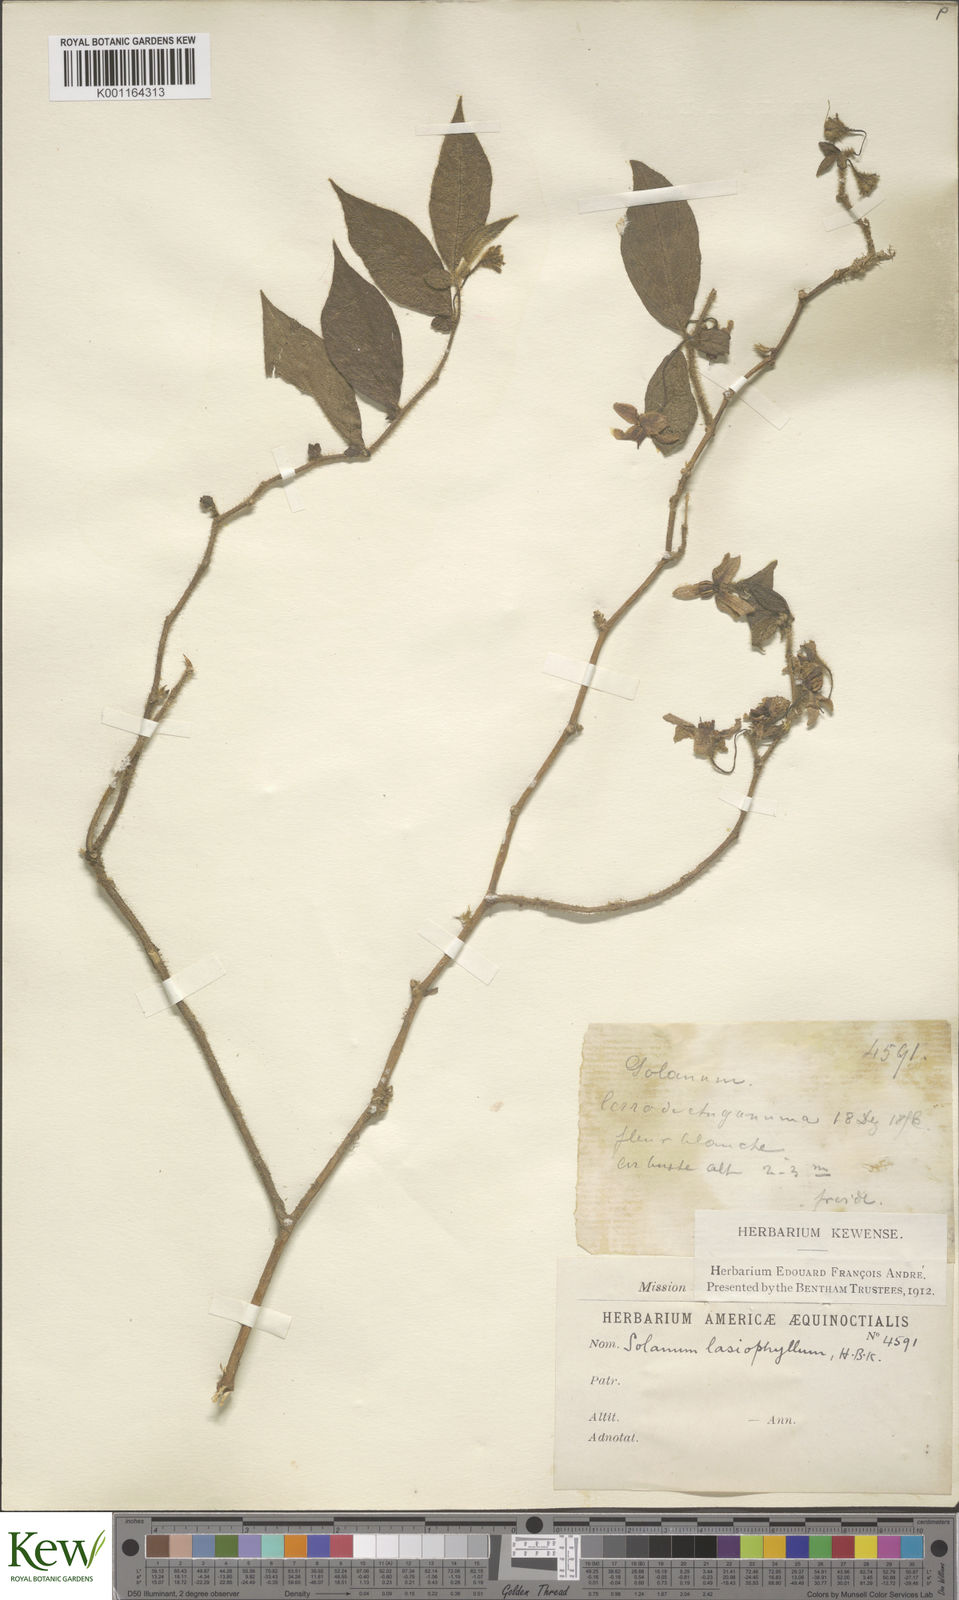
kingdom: Plantae
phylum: Tracheophyta
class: Magnoliopsida
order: Solanales
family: Solanaceae
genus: Solanum
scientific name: Solanum lasiophyllum
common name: Flannelbush
